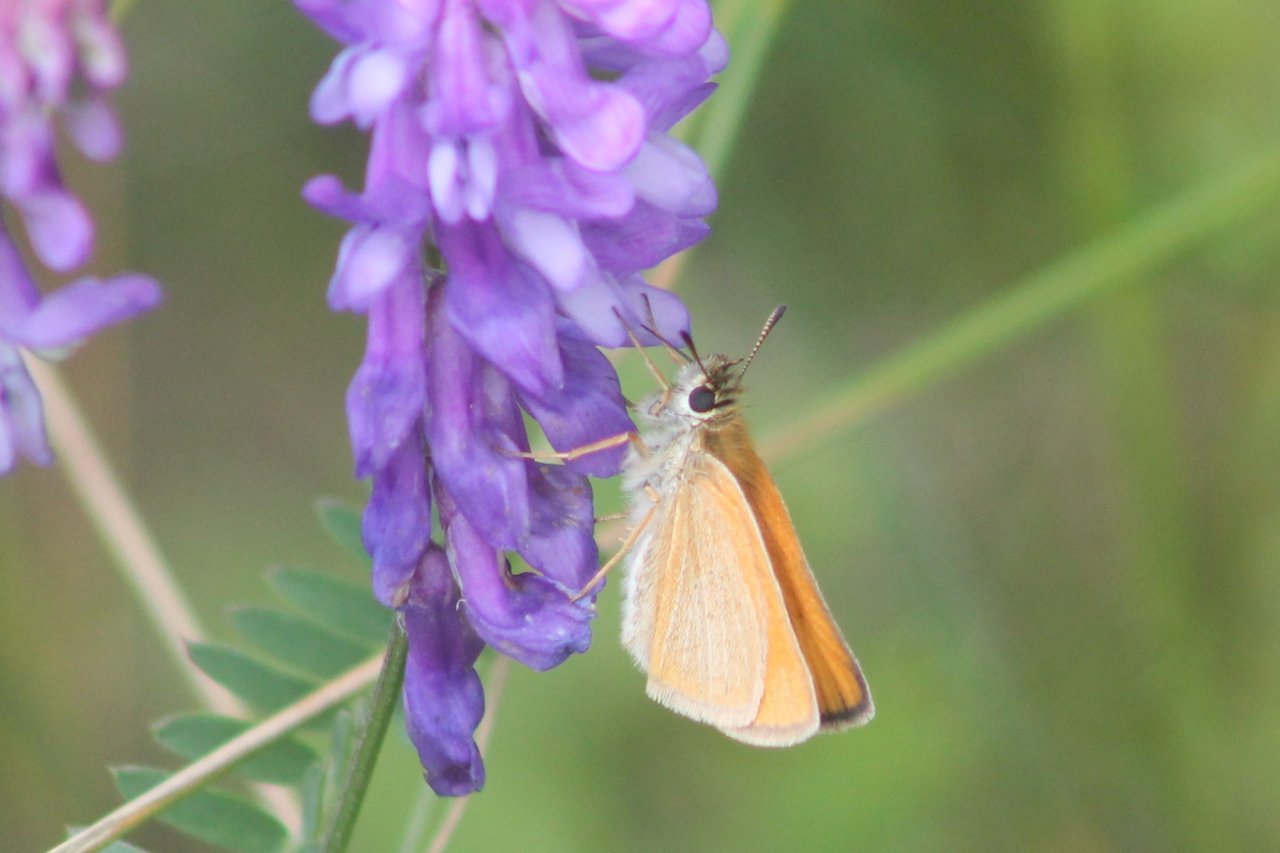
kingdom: Animalia
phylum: Arthropoda
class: Insecta
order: Lepidoptera
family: Hesperiidae
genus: Thymelicus
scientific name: Thymelicus lineola
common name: European Skipper
